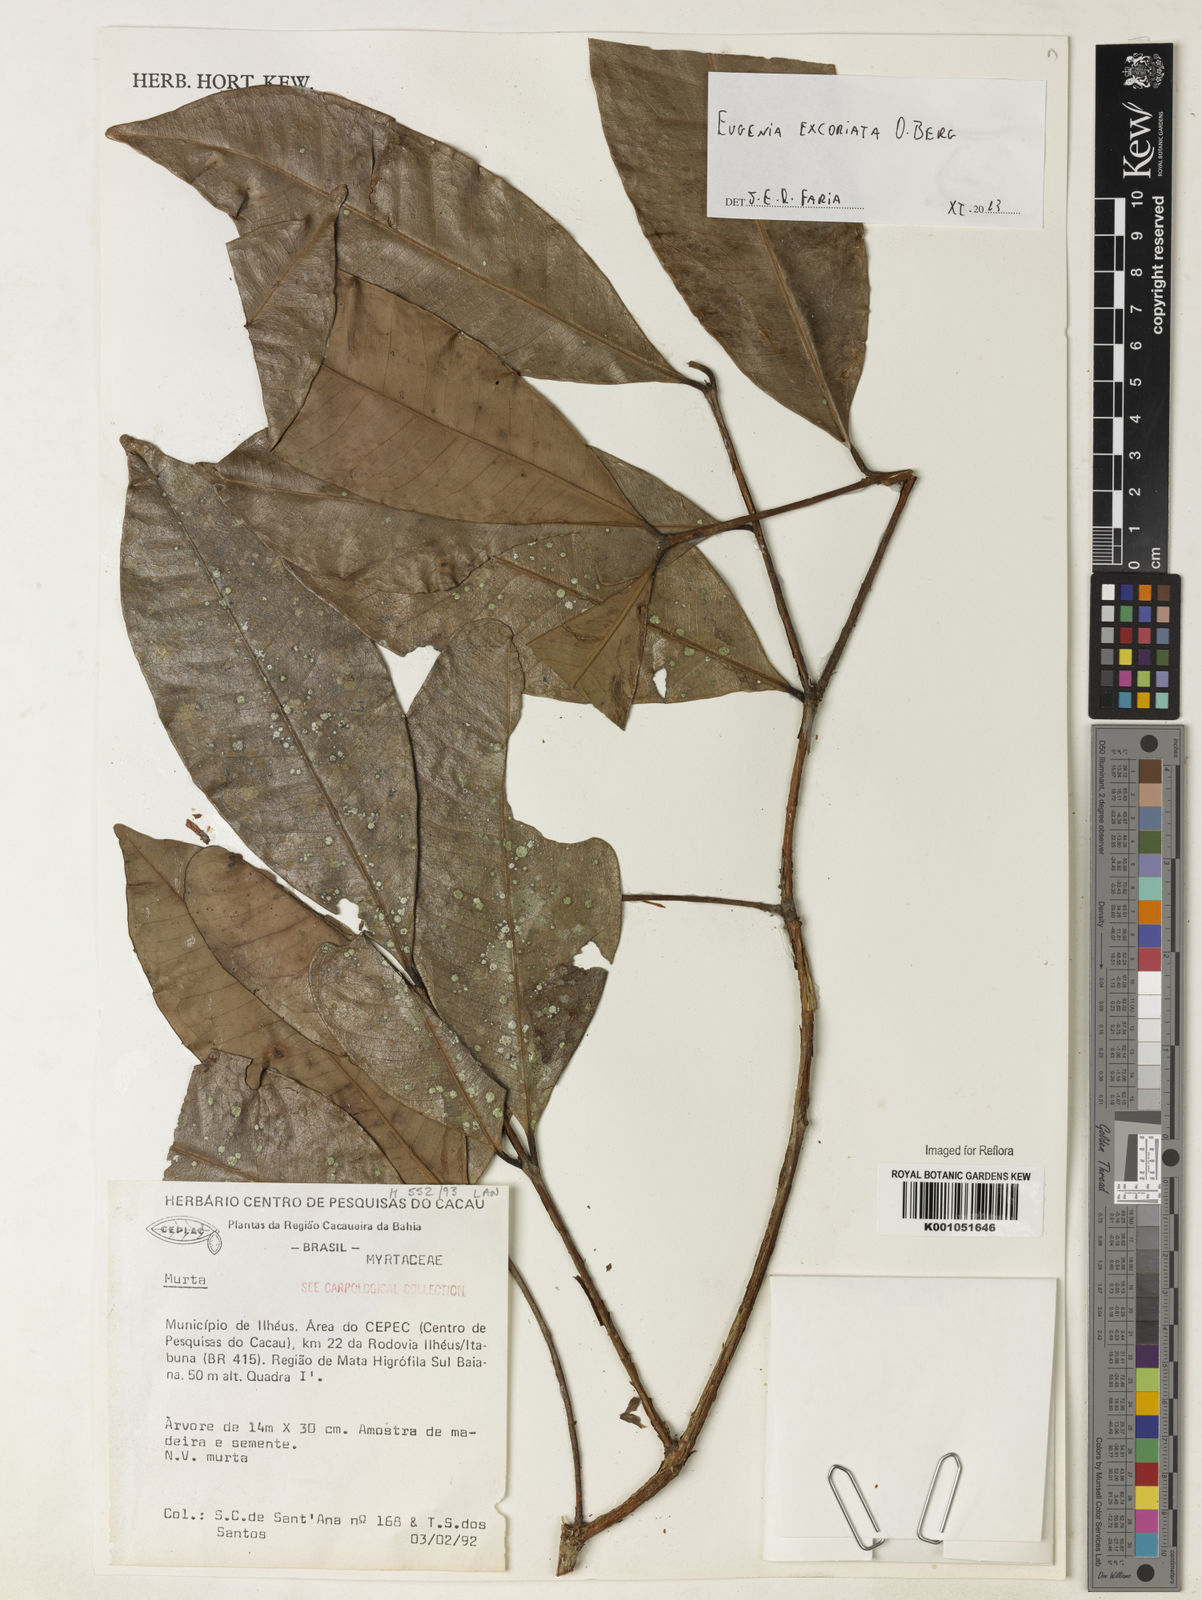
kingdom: Plantae
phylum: Tracheophyta
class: Magnoliopsida
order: Myrtales
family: Myrtaceae
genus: Eugenia
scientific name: Eugenia excoriata
